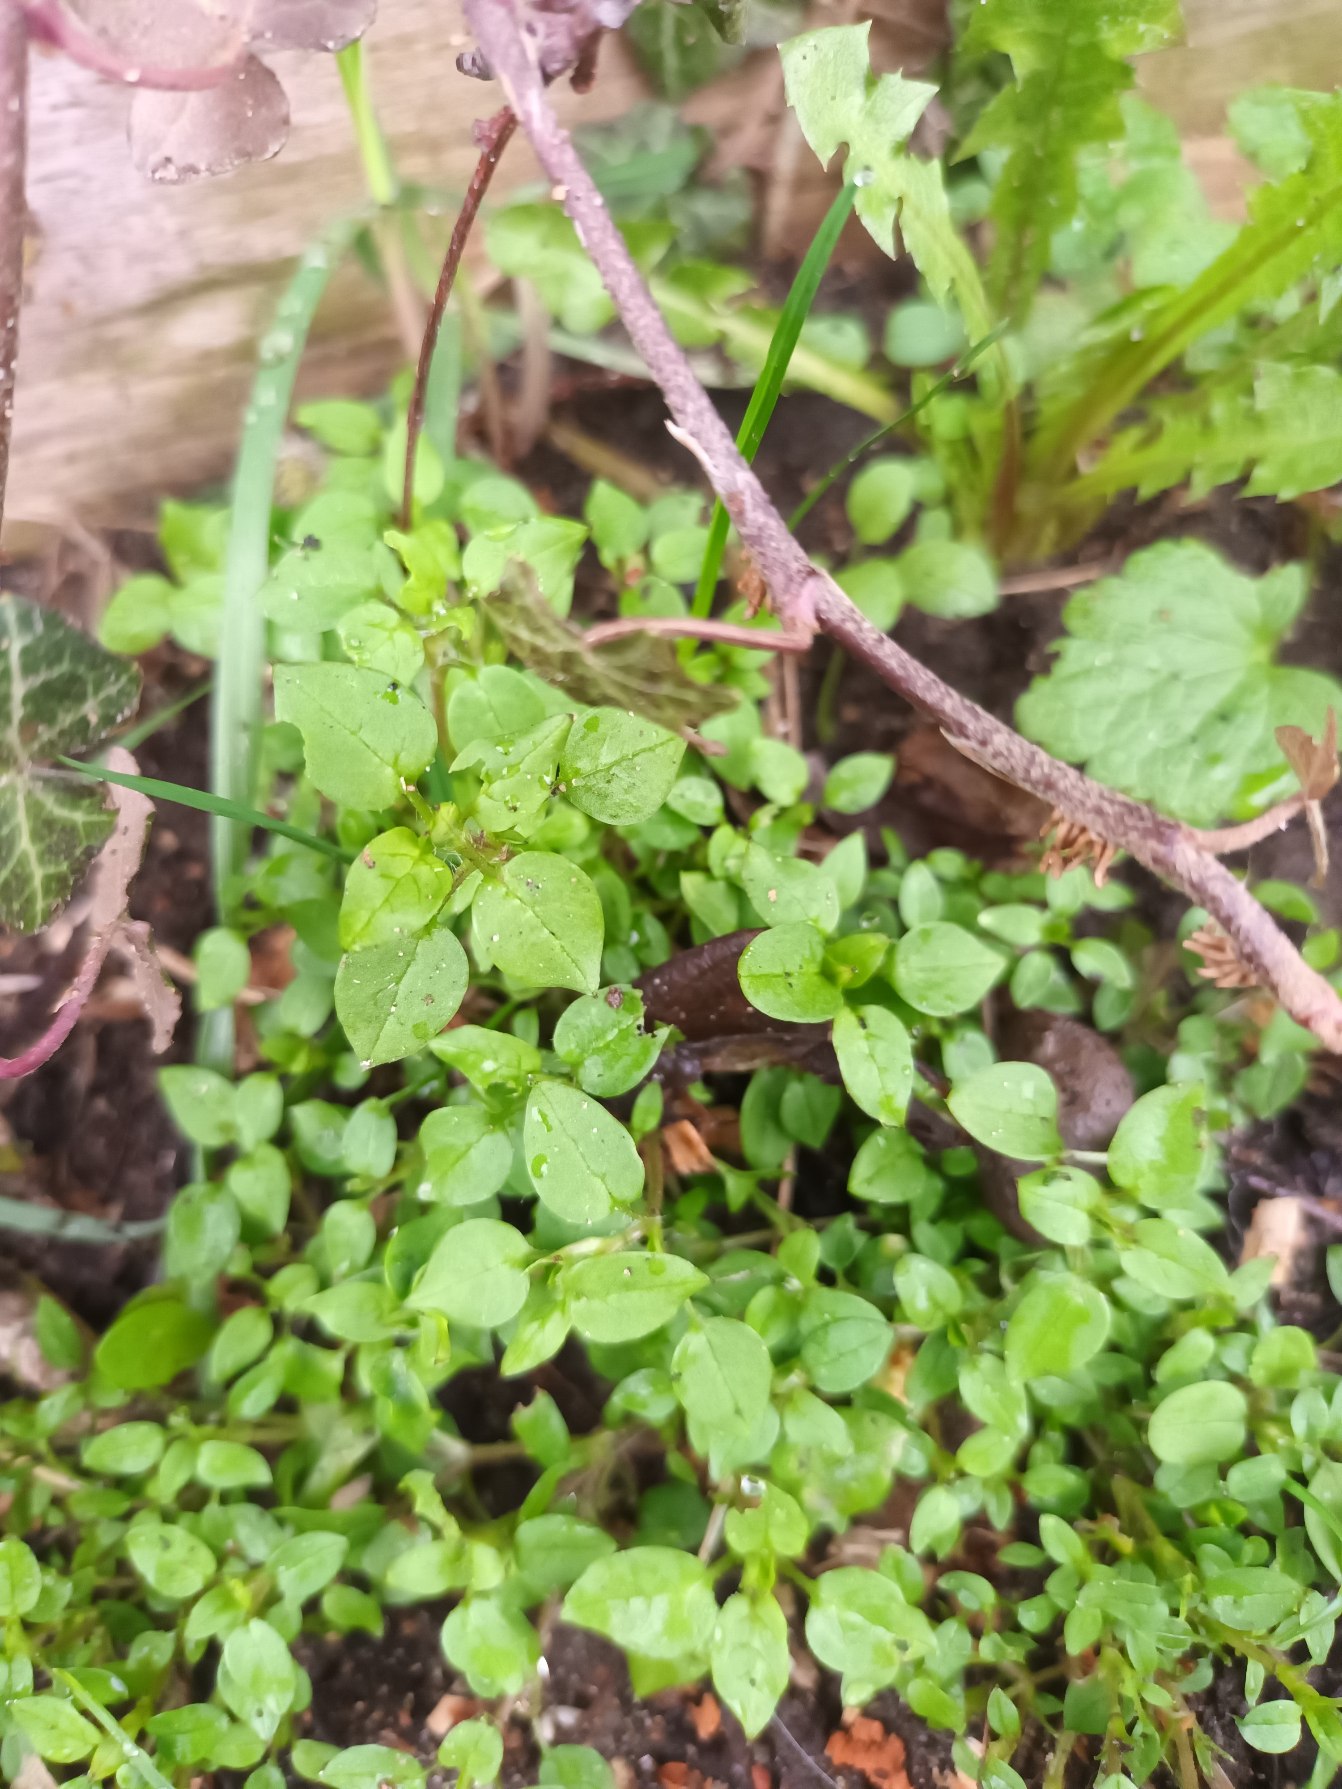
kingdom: Plantae
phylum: Tracheophyta
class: Magnoliopsida
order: Caryophyllales
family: Caryophyllaceae
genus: Stellaria
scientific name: Stellaria media
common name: Almindelig fuglegræs
